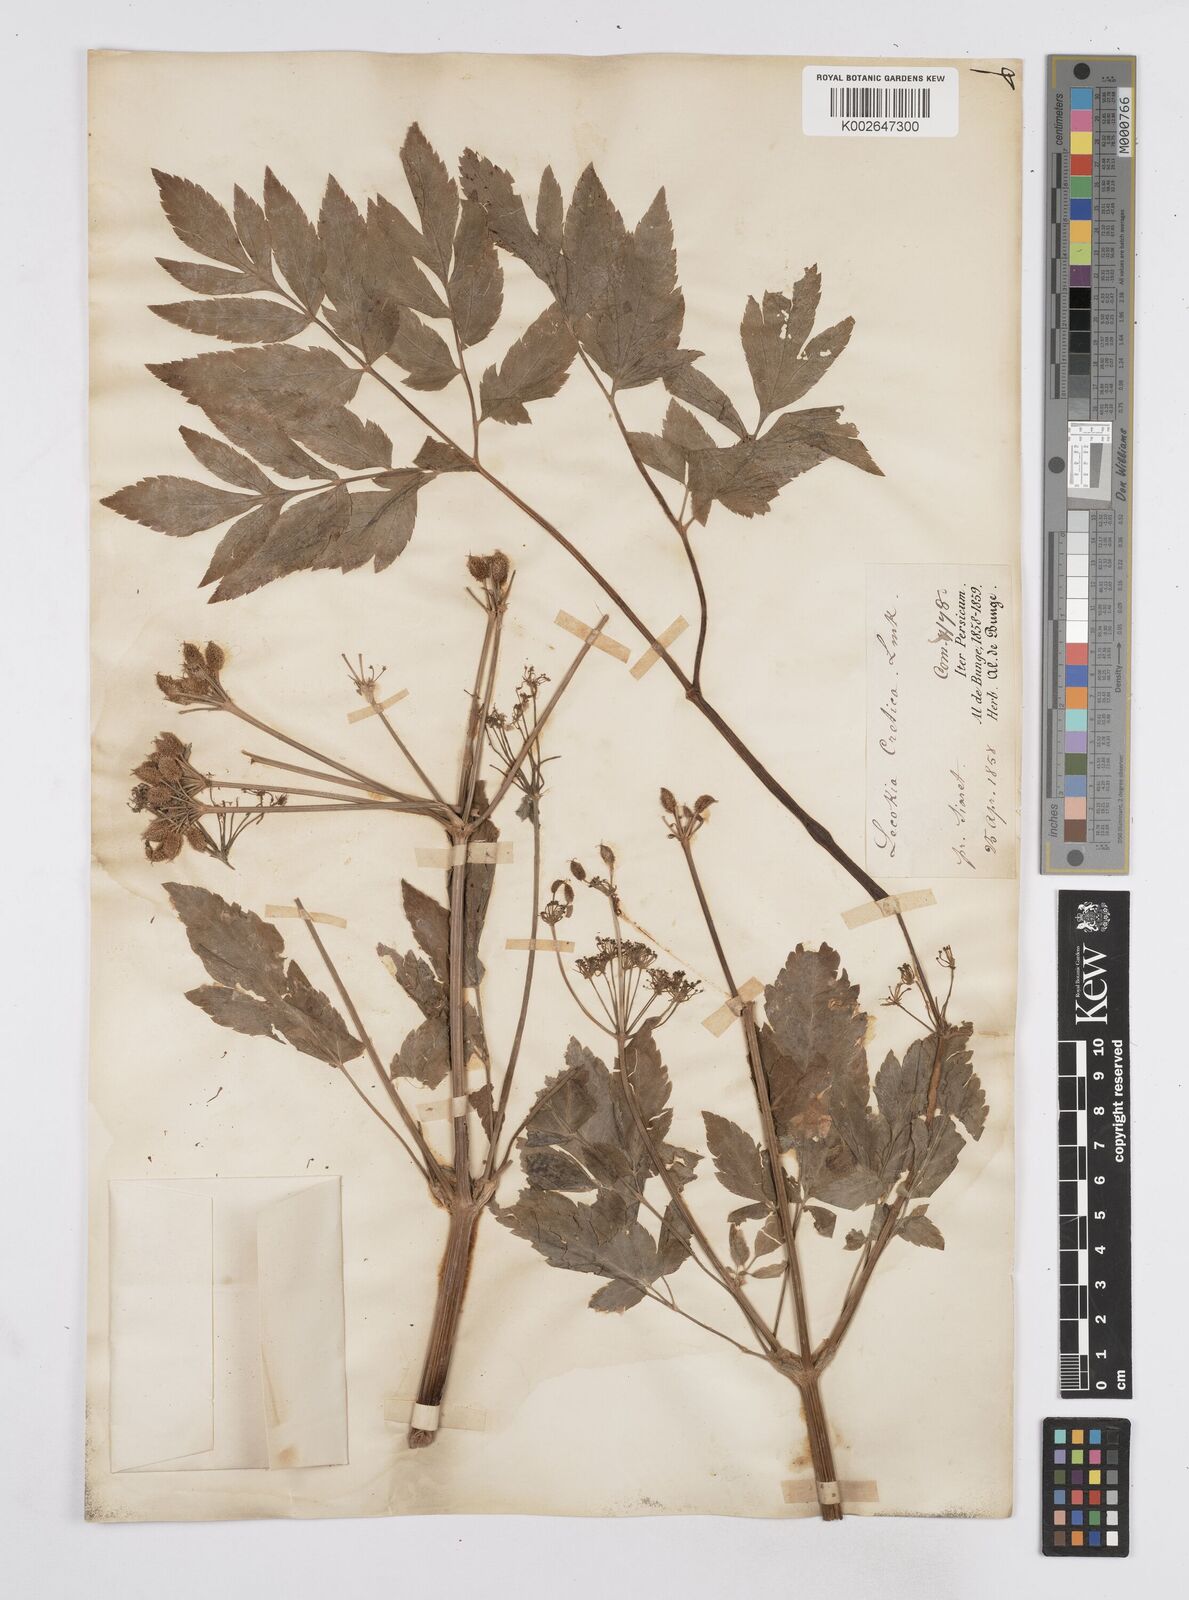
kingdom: Plantae
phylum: Tracheophyta
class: Magnoliopsida
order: Apiales
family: Apiaceae
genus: Lecokia
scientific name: Lecokia cretica
